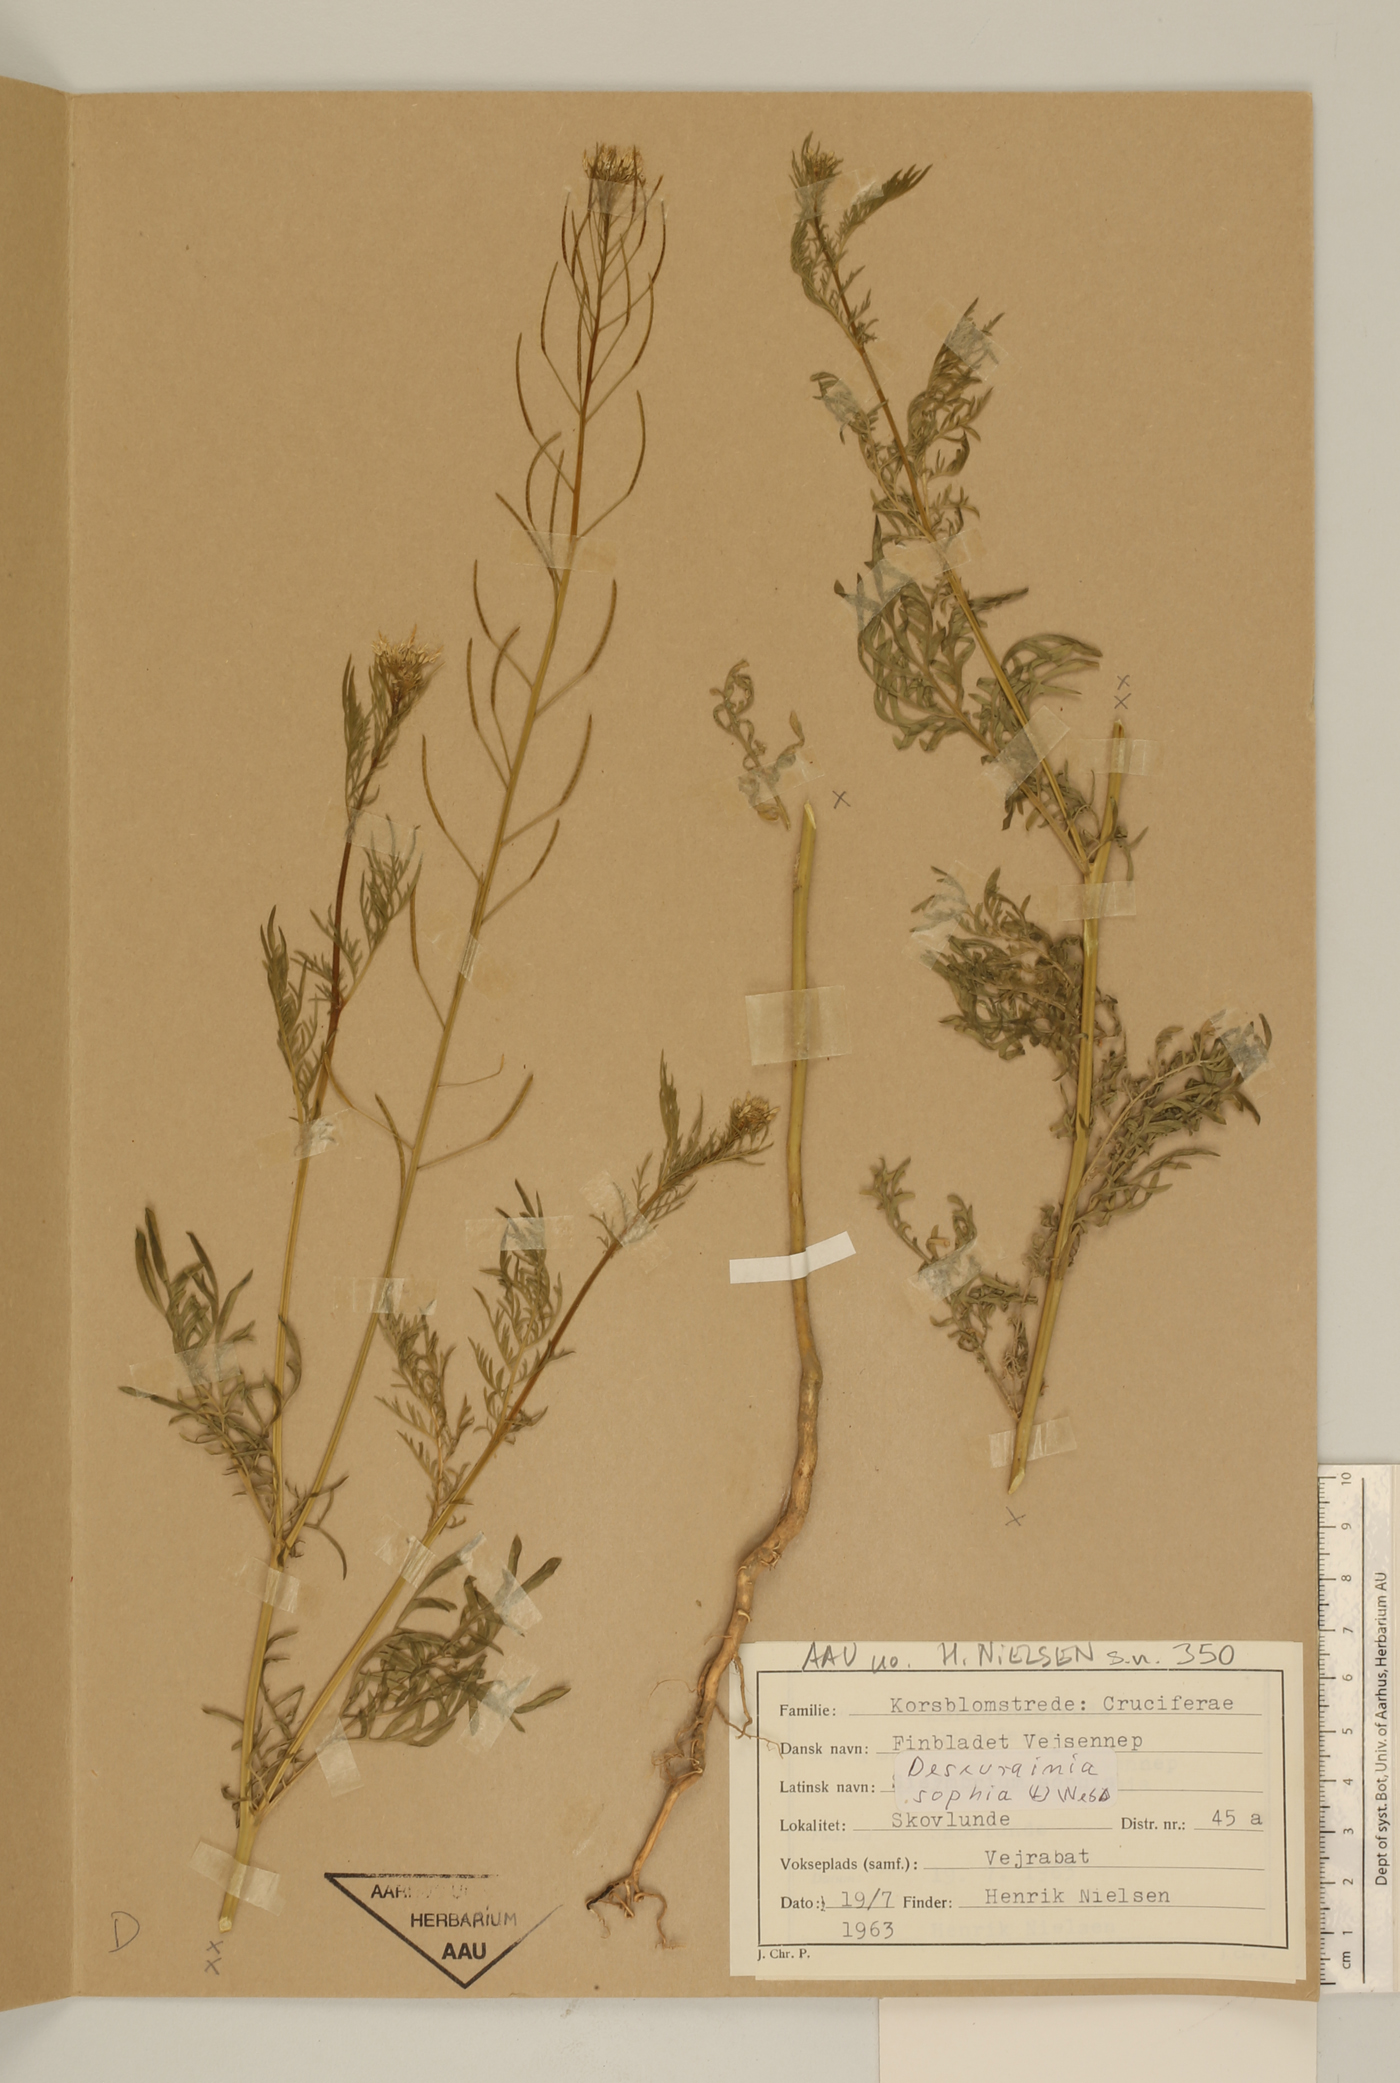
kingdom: Plantae
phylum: Tracheophyta
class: Magnoliopsida
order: Brassicales
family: Brassicaceae
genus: Descurainia
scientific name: Descurainia sophia
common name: Flixweed
